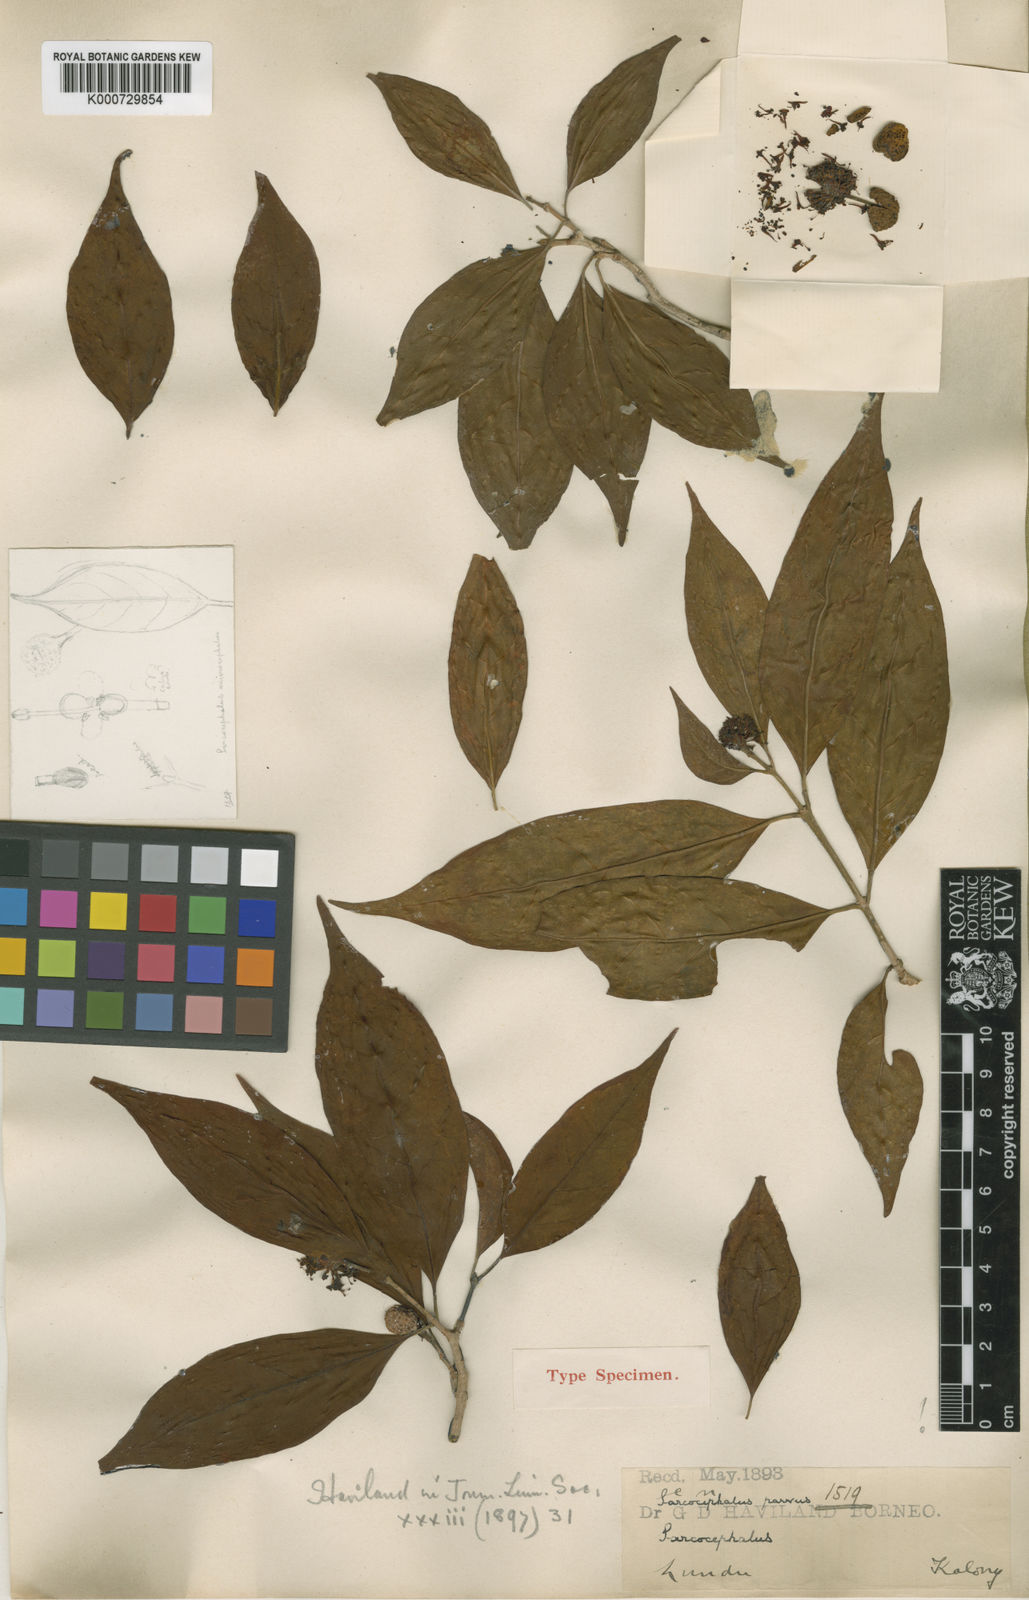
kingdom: Plantae
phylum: Tracheophyta
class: Magnoliopsida
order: Gentianales
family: Rubiaceae
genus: Nauclea
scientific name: Nauclea parva
